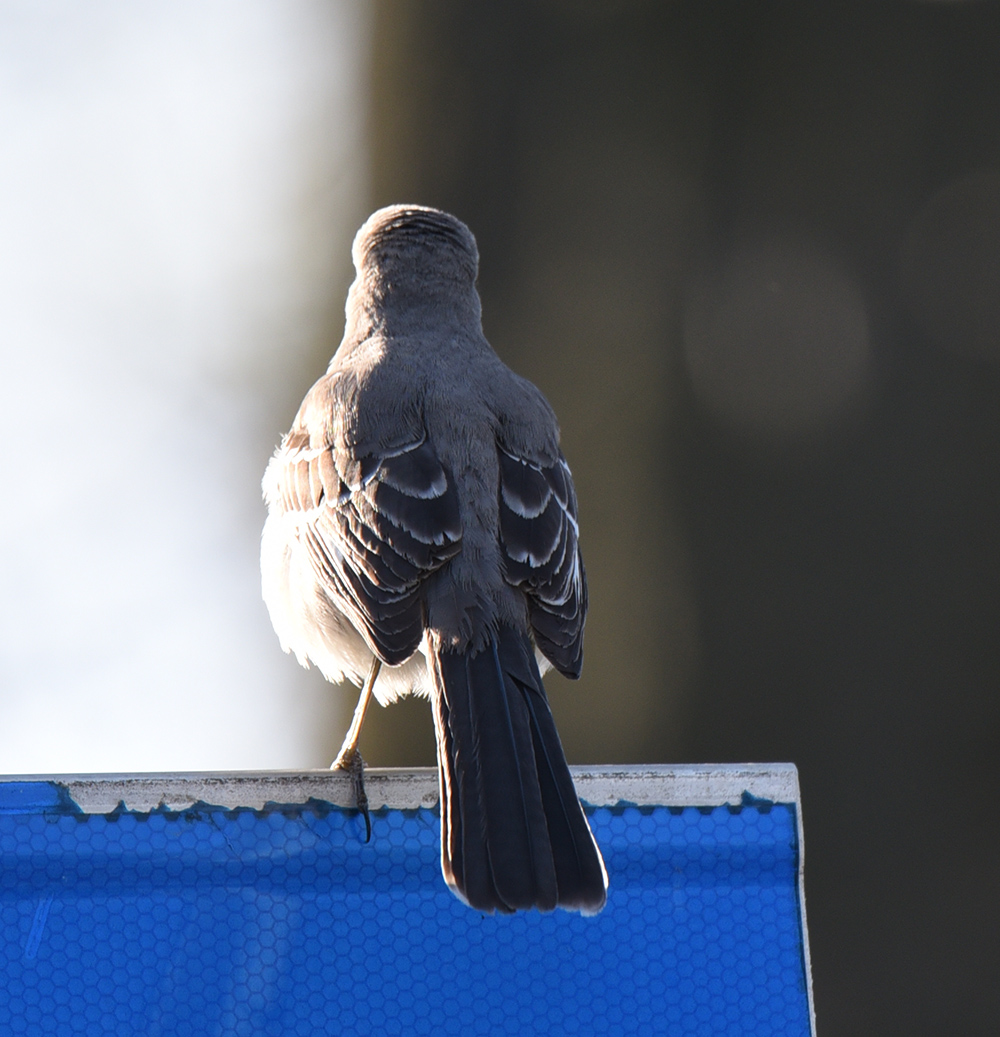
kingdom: Animalia
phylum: Chordata
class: Aves
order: Passeriformes
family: Mimidae
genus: Mimus
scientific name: Mimus polyglottos
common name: Northern mockingbird
